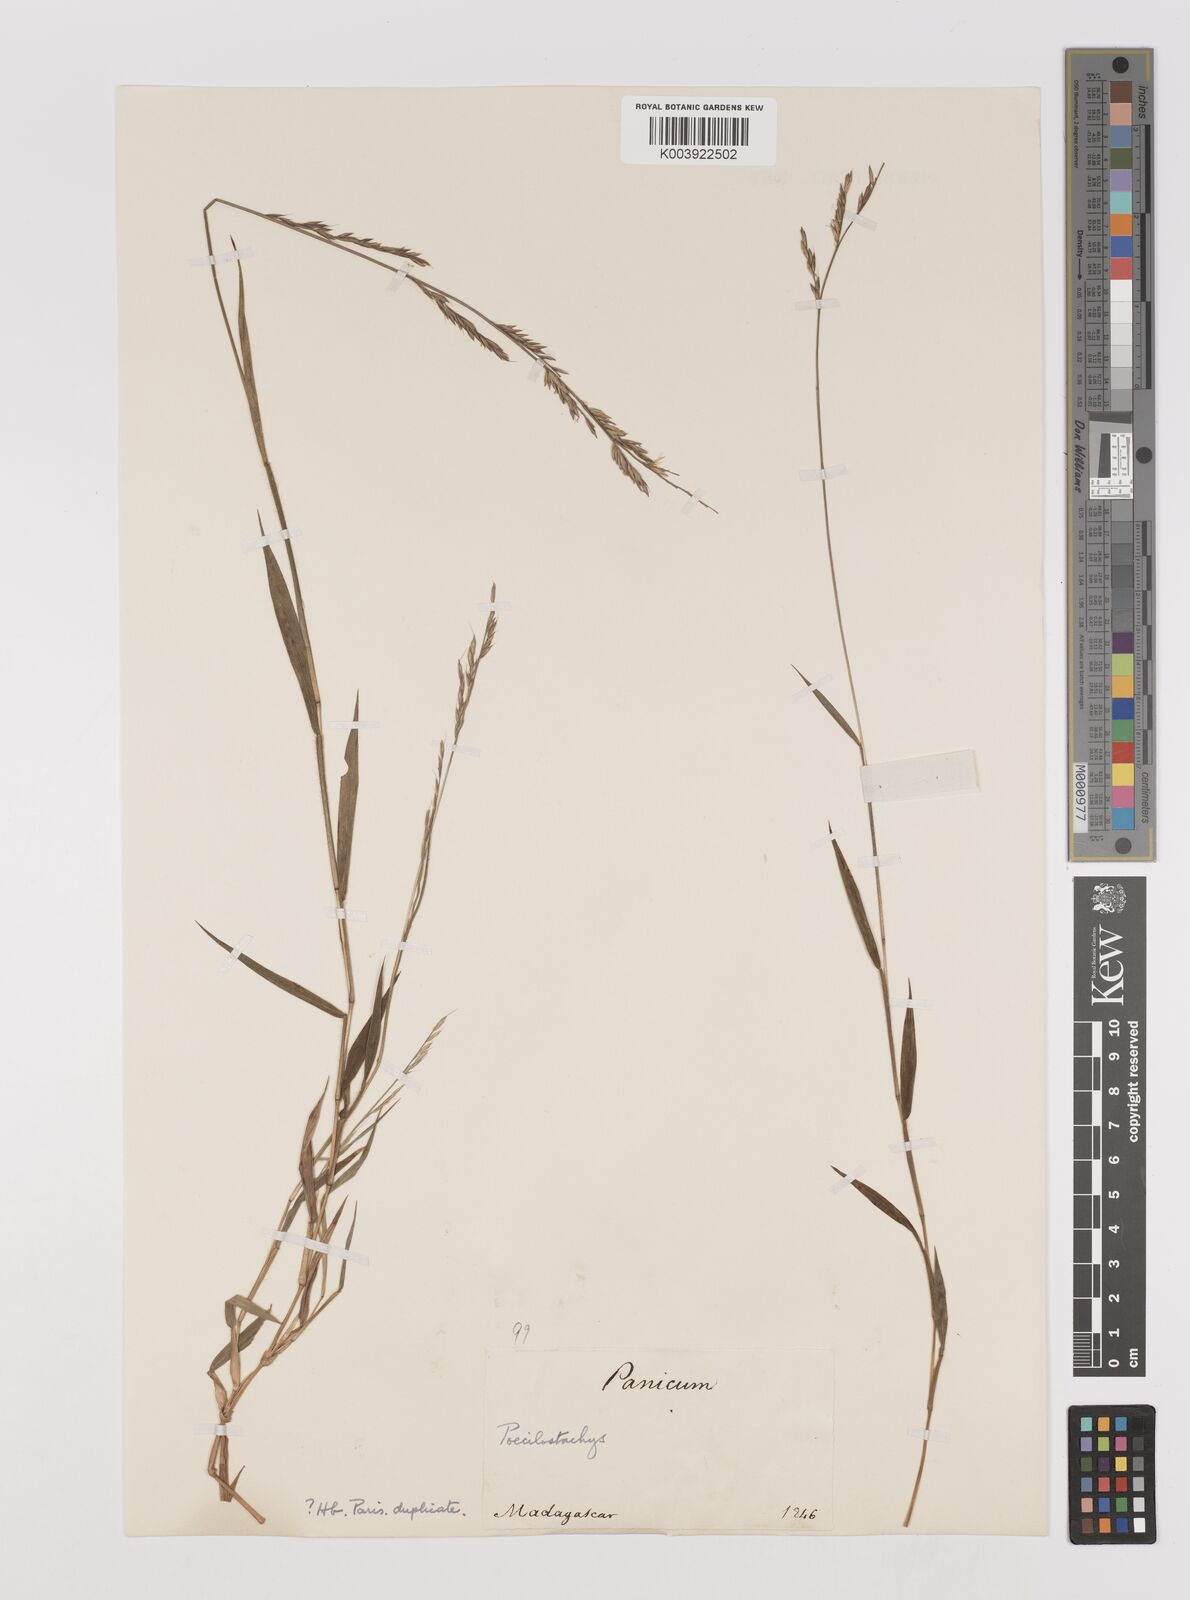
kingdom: Plantae
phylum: Tracheophyta
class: Liliopsida
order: Poales
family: Poaceae
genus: Poecilostachys
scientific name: Poecilostachys
